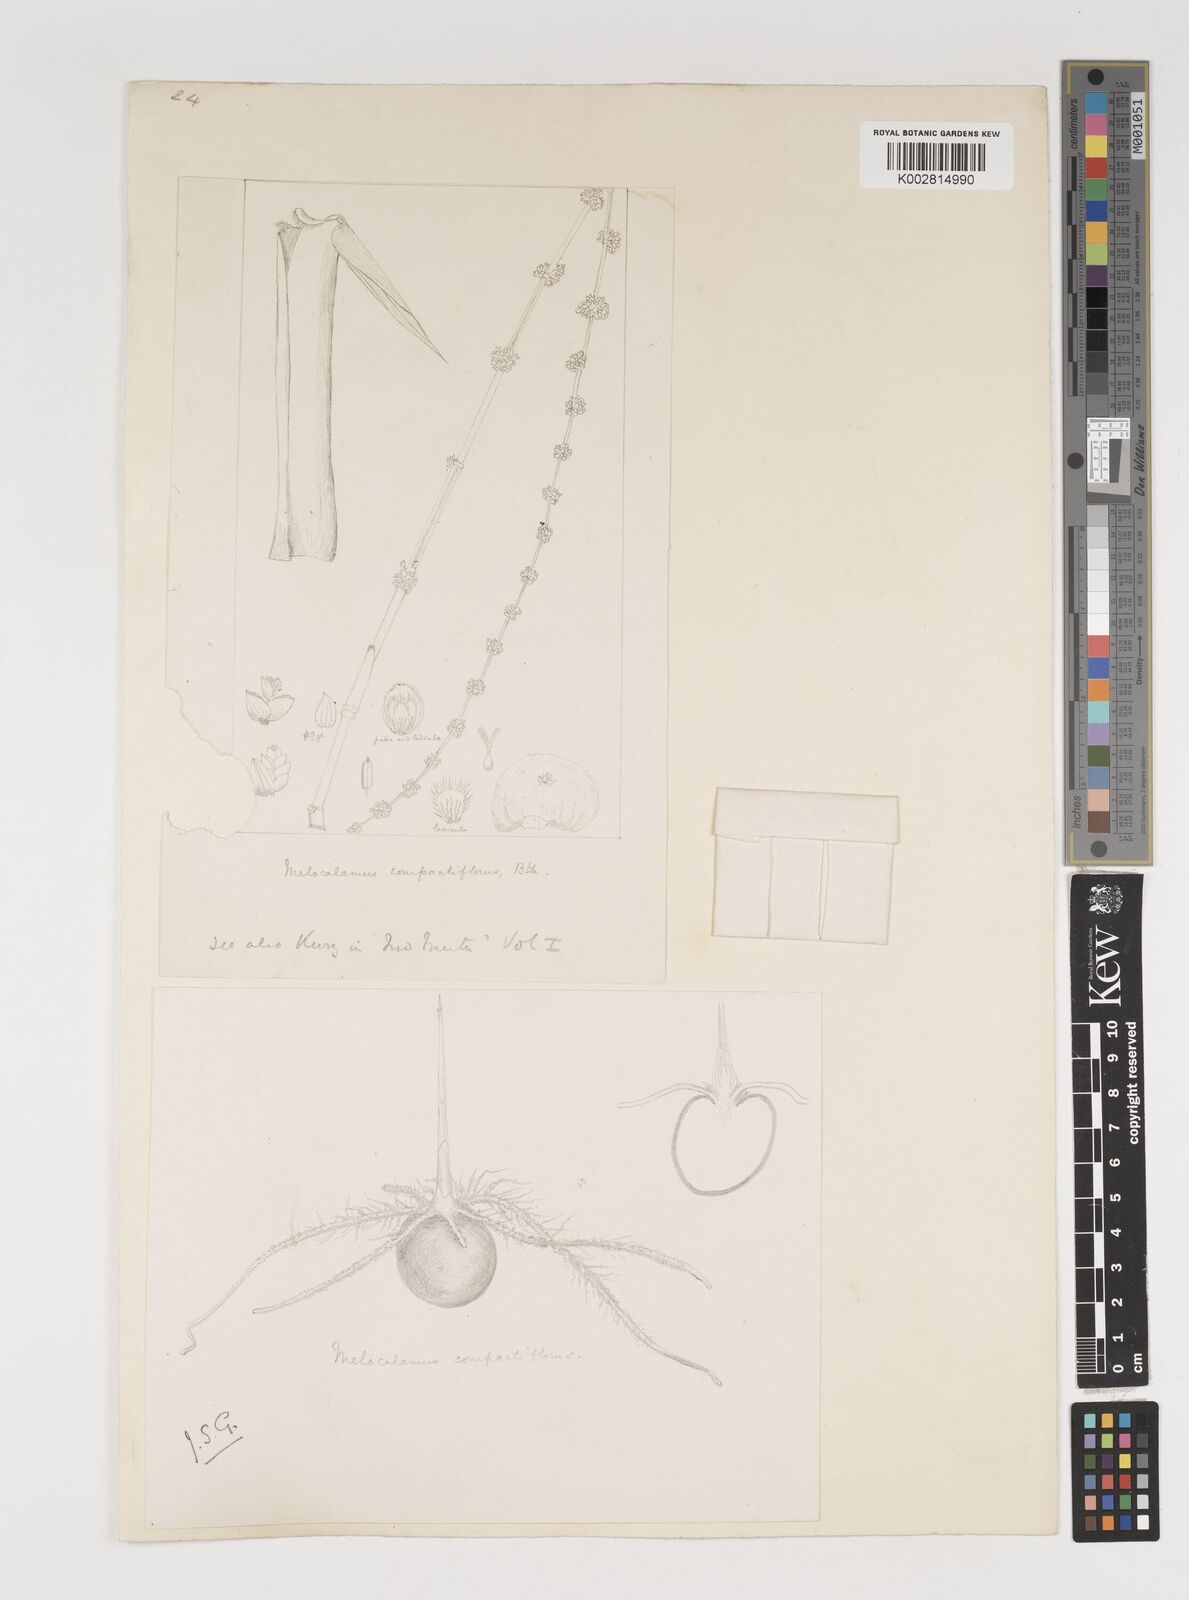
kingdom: Plantae
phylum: Tracheophyta
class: Liliopsida
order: Poales
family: Poaceae
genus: Melocalamus
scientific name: Melocalamus compactiflorus
